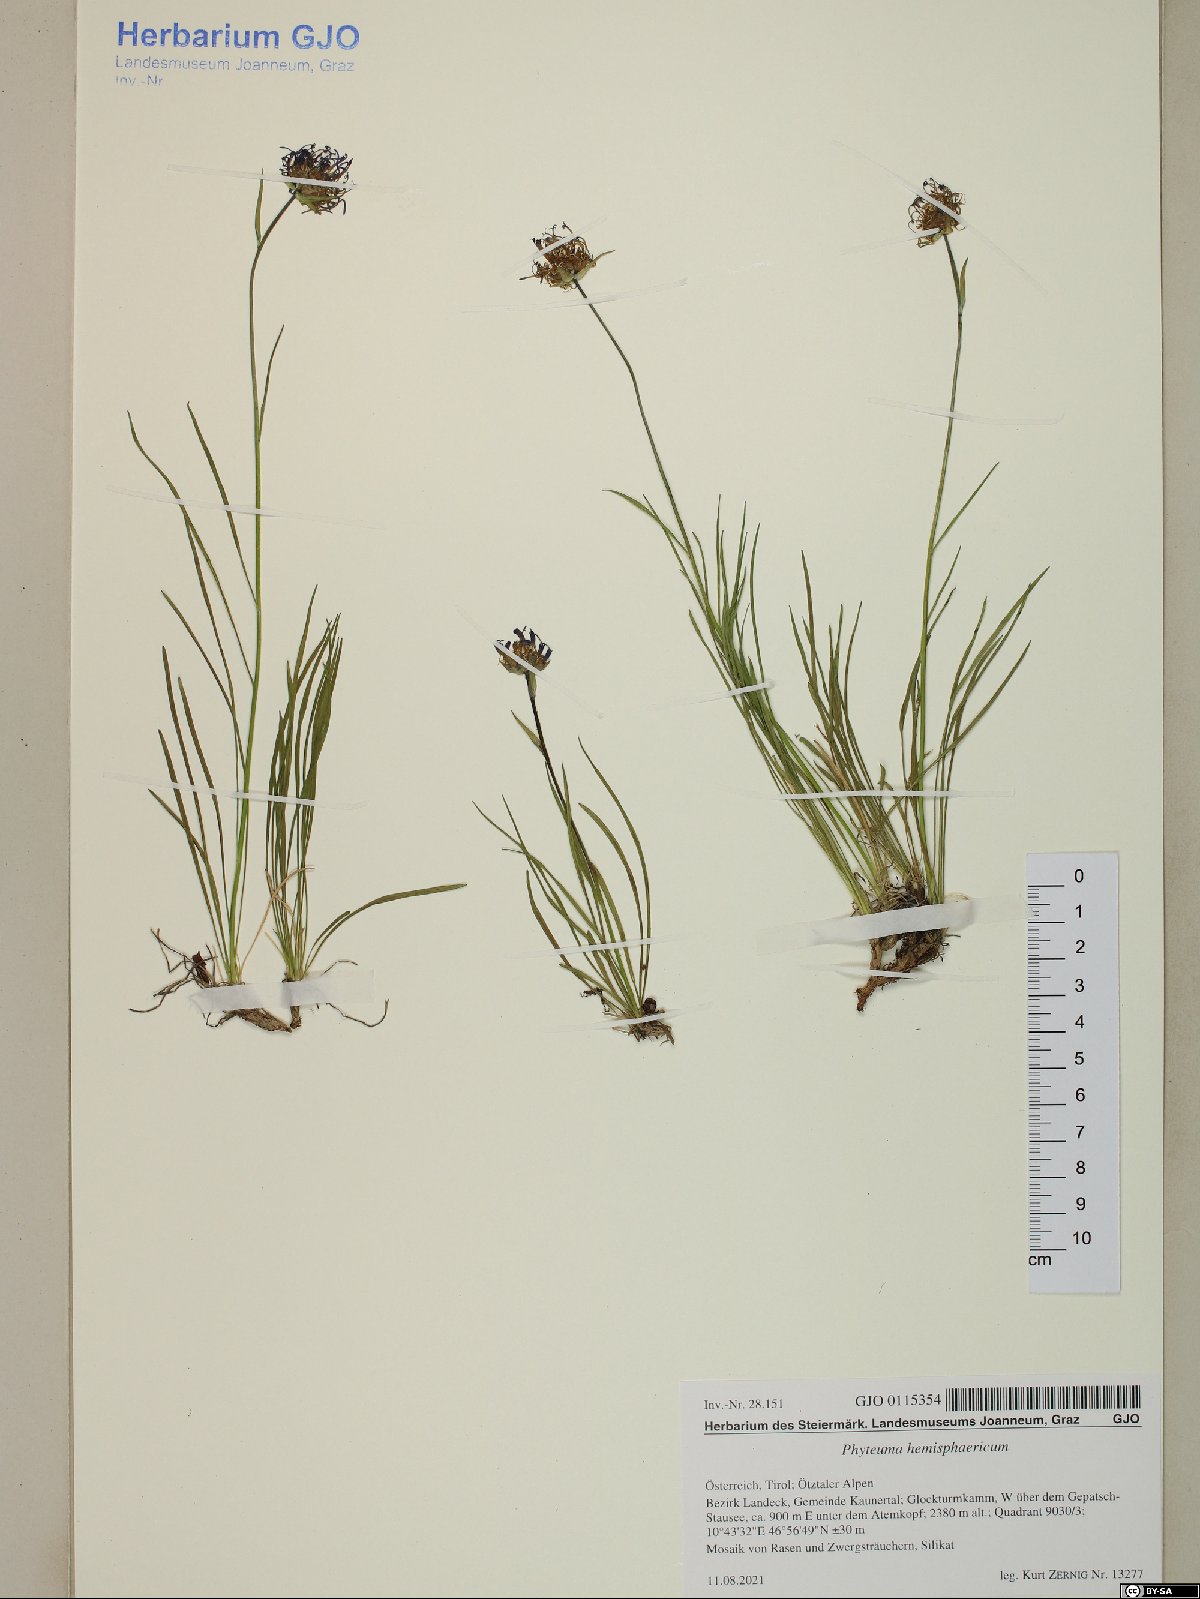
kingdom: Plantae
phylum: Tracheophyta
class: Magnoliopsida
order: Asterales
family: Campanulaceae
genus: Phyteuma
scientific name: Phyteuma hemisphaericum
